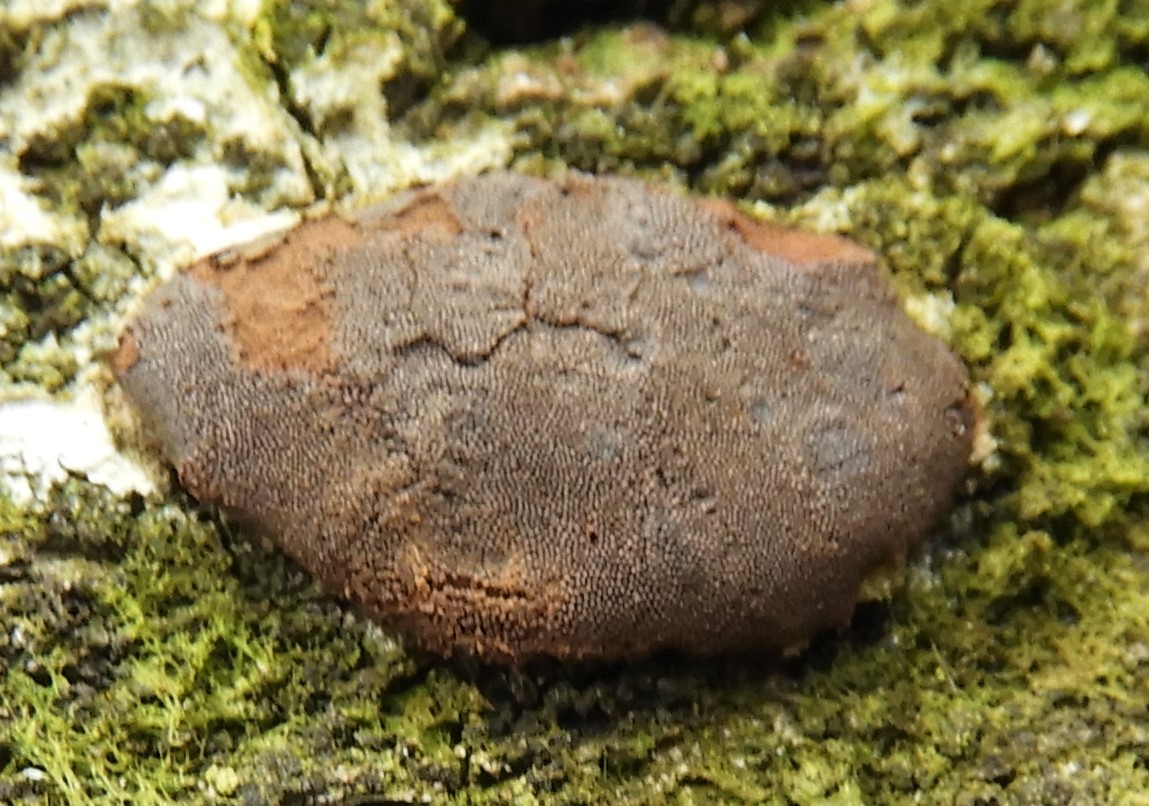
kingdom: Protozoa
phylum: Mycetozoa
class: Myxomycetes
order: Trichiales
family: Dictydiaethaliaceae
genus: Dictydiaethalium
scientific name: Dictydiaethalium plumbeum
